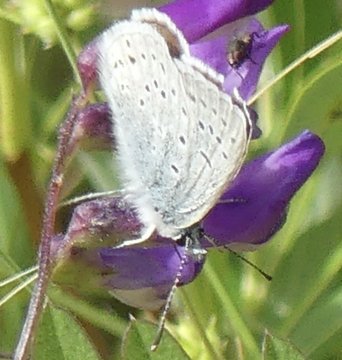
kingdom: Animalia
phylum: Arthropoda
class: Insecta
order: Lepidoptera
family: Lycaenidae
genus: Plebejus
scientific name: Plebejus saepiolus
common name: Greenish Blue
